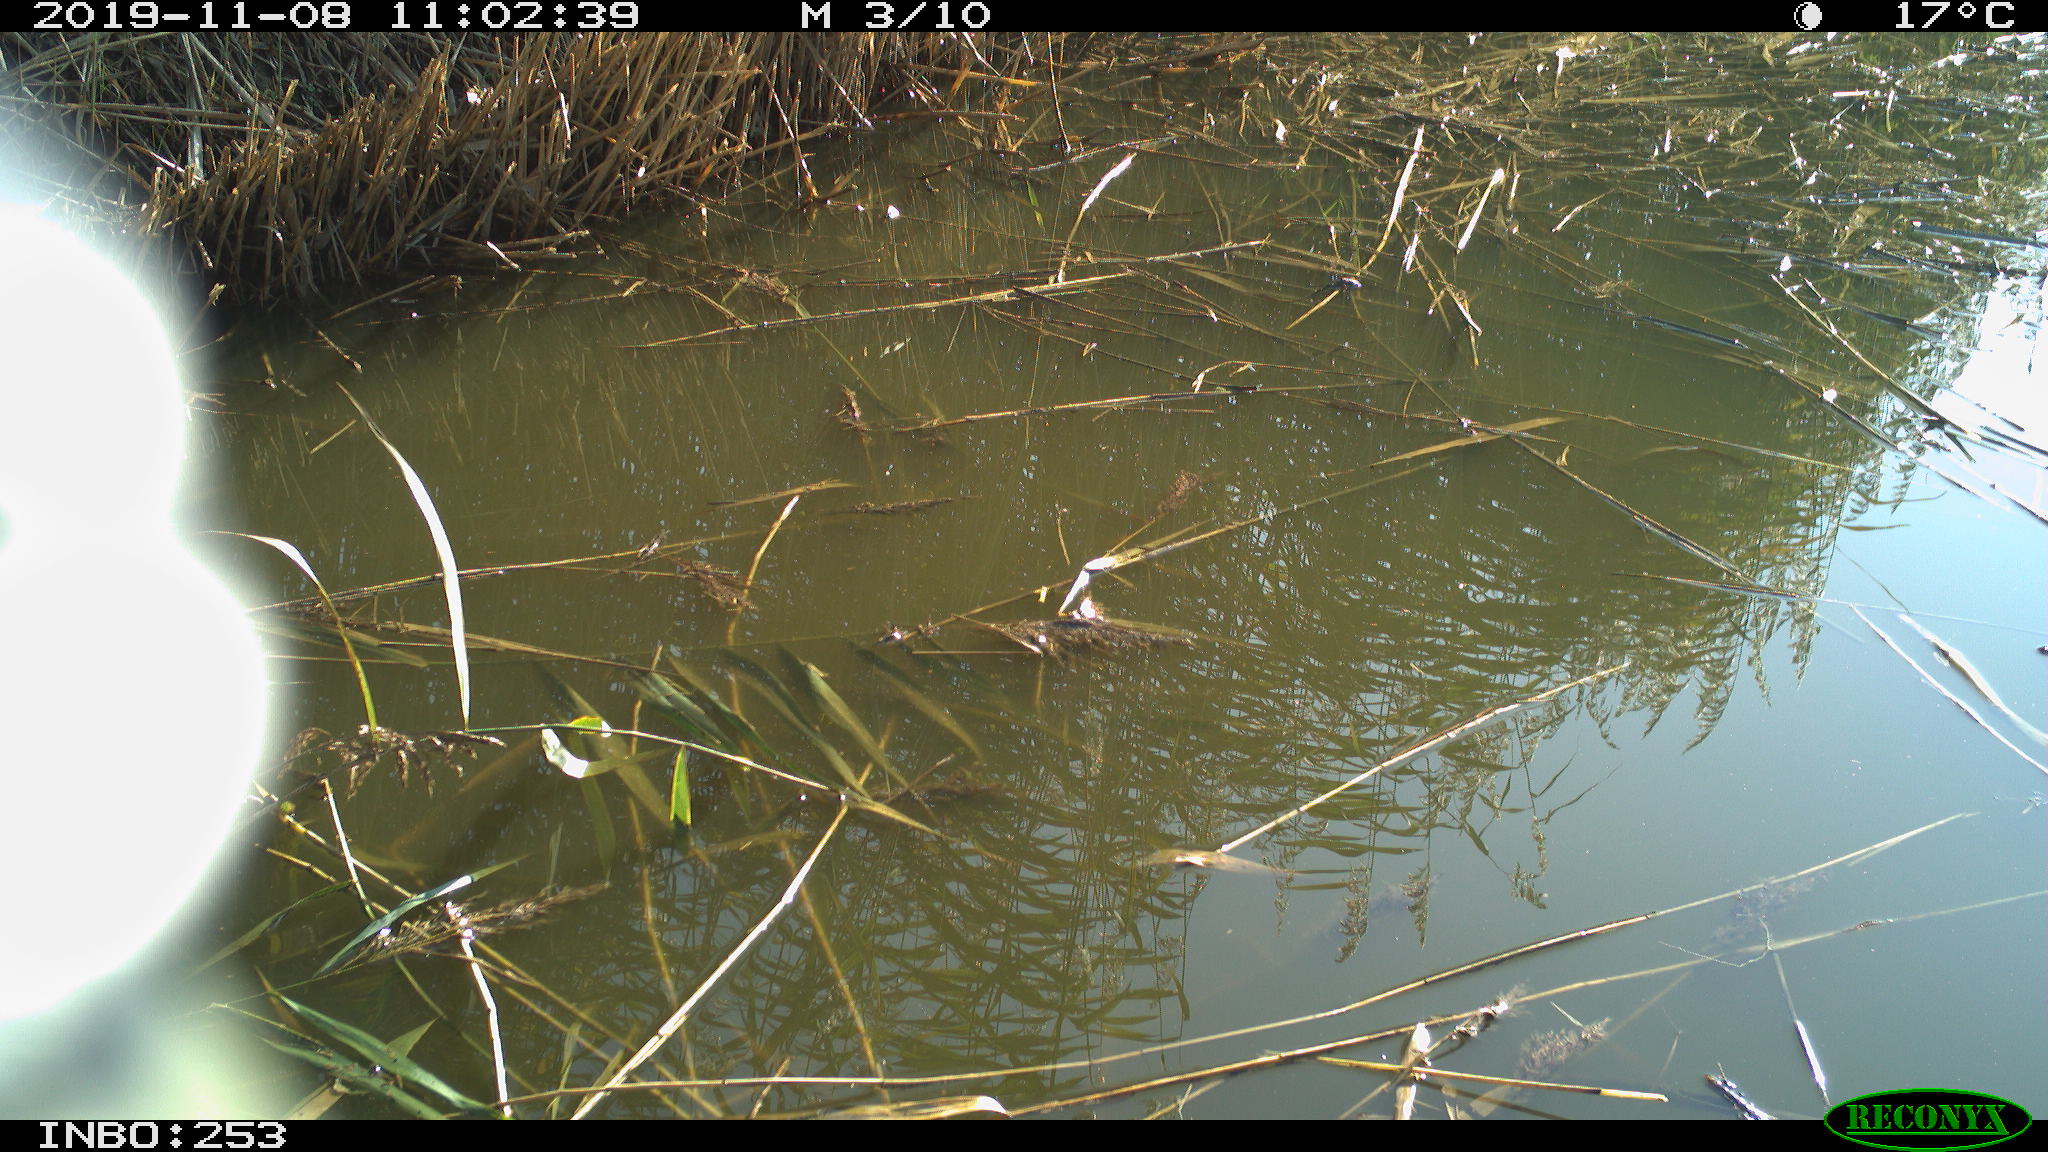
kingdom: Animalia
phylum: Chordata
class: Aves
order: Passeriformes
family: Paridae
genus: Cyanistes
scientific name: Cyanistes caeruleus
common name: Eurasian blue tit
